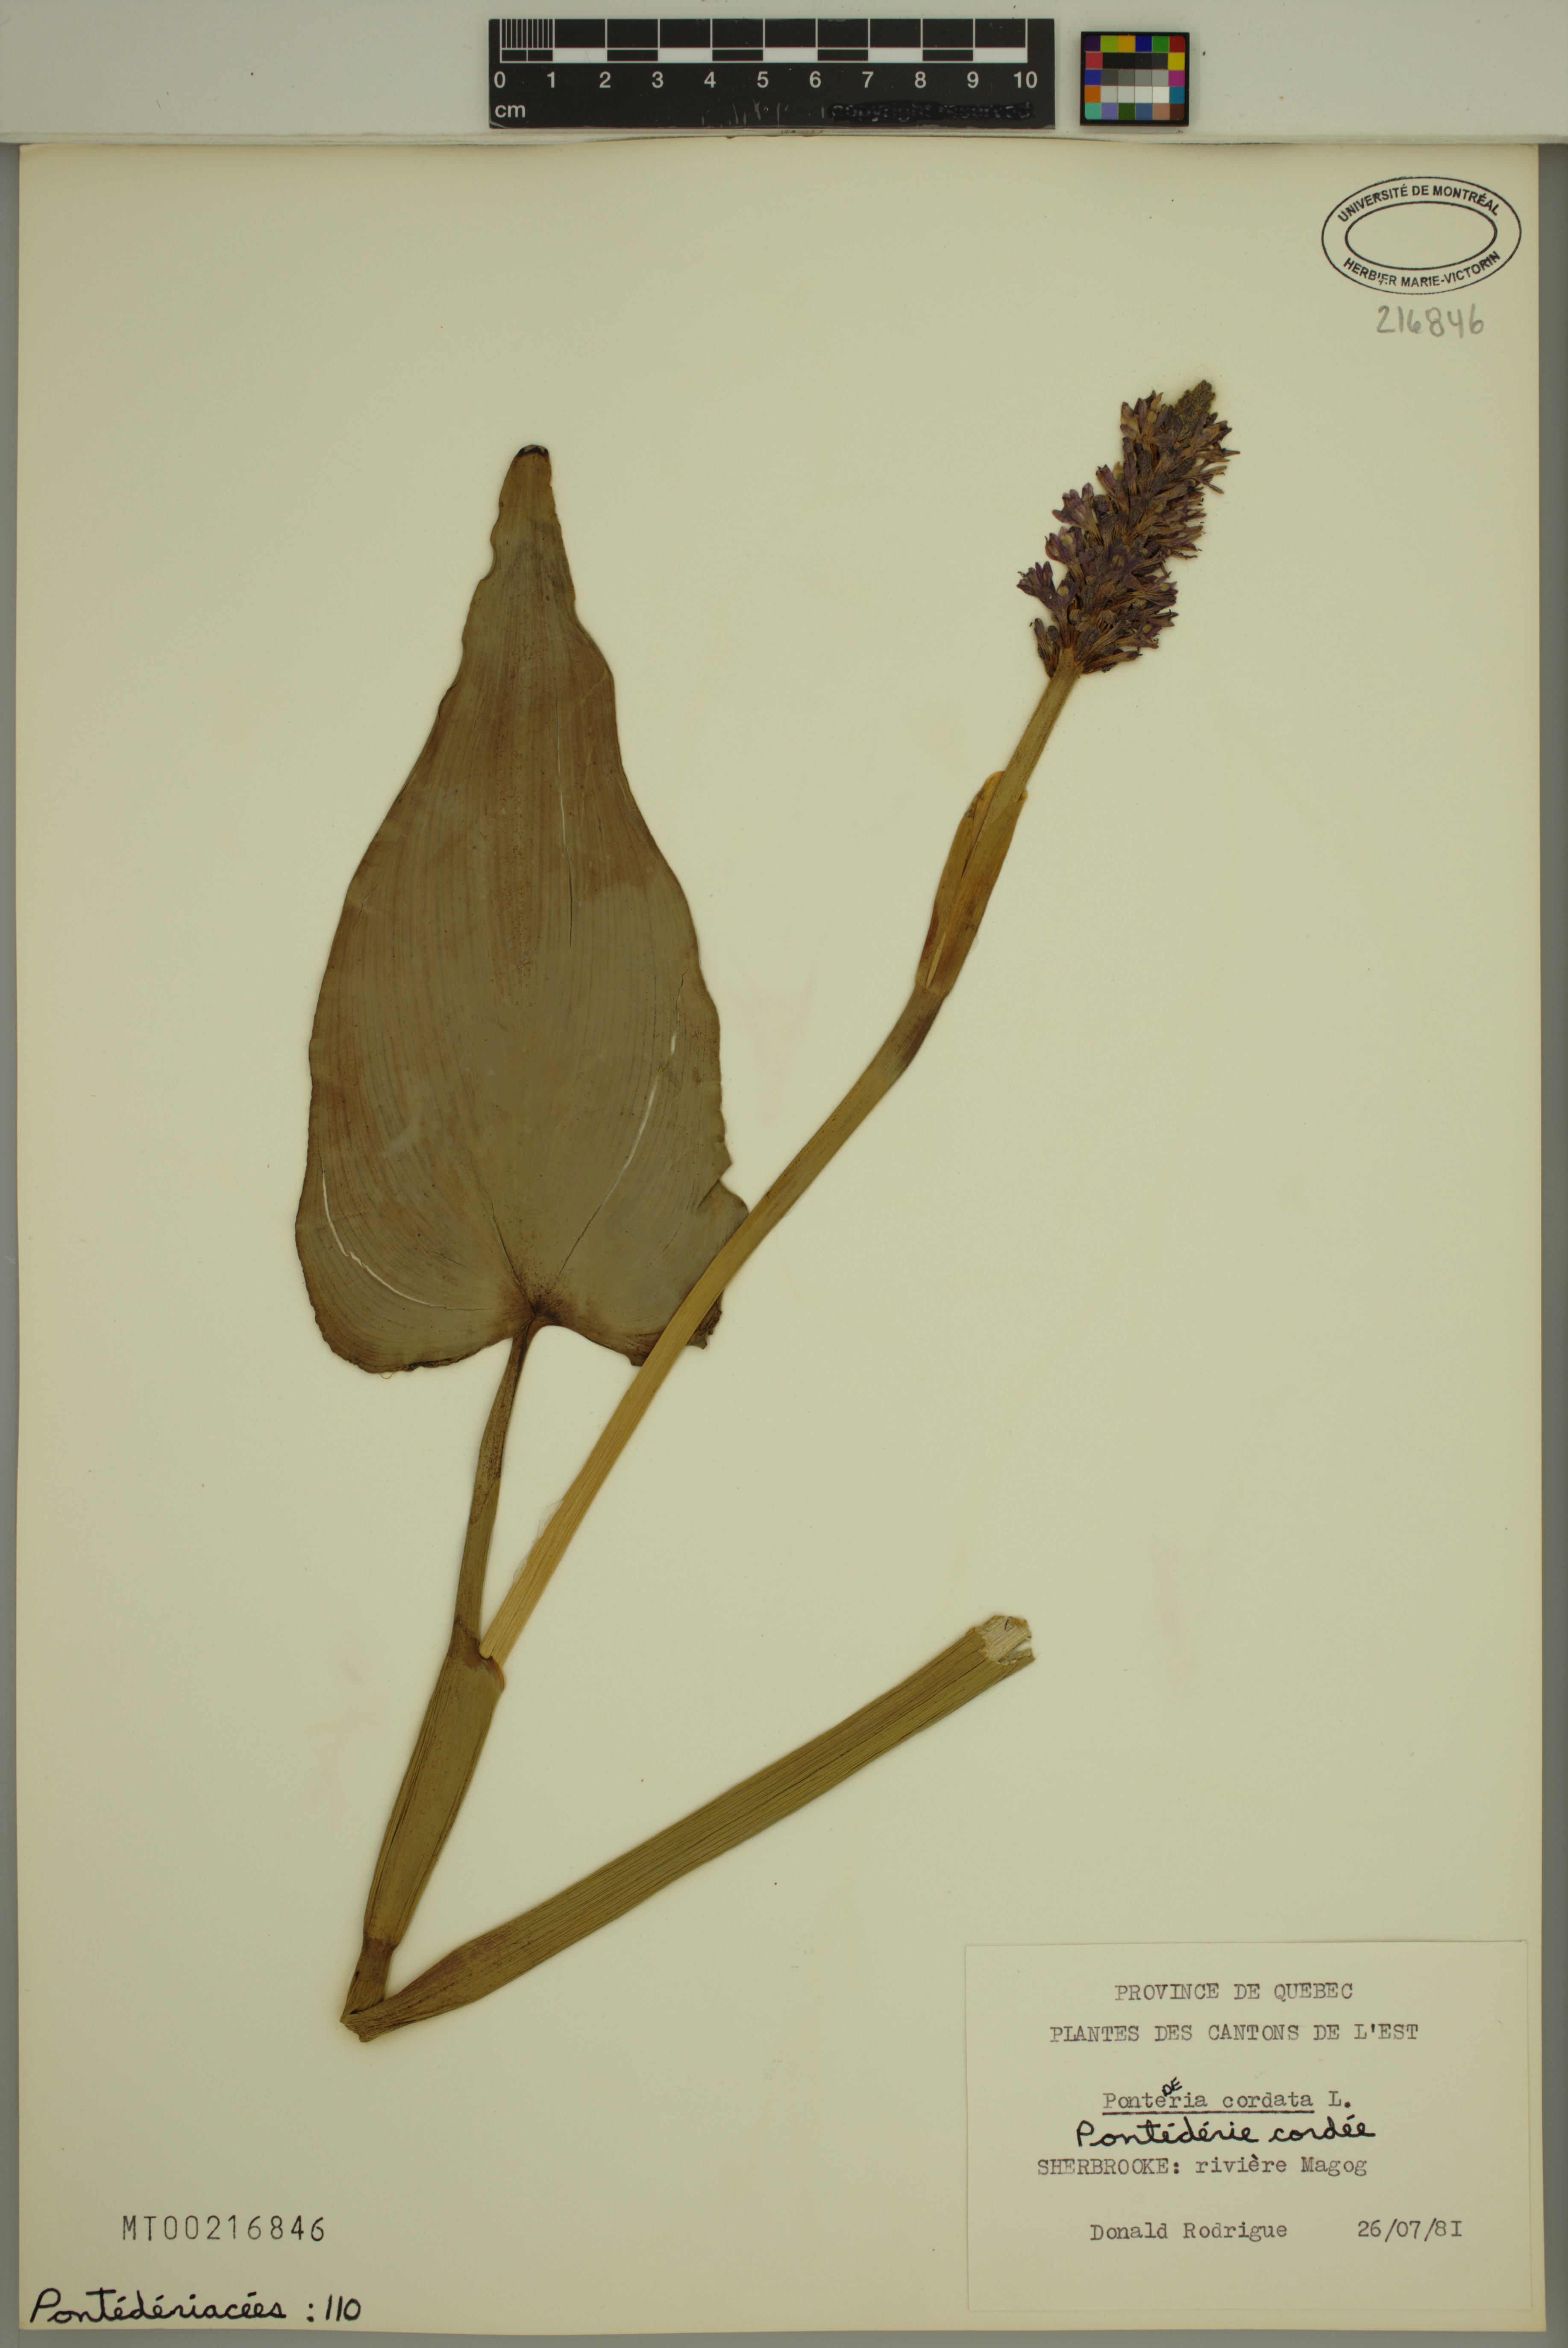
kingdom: Plantae
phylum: Tracheophyta
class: Liliopsida
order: Commelinales
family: Pontederiaceae
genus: Pontederia
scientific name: Pontederia cordata
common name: Pickerelweed
